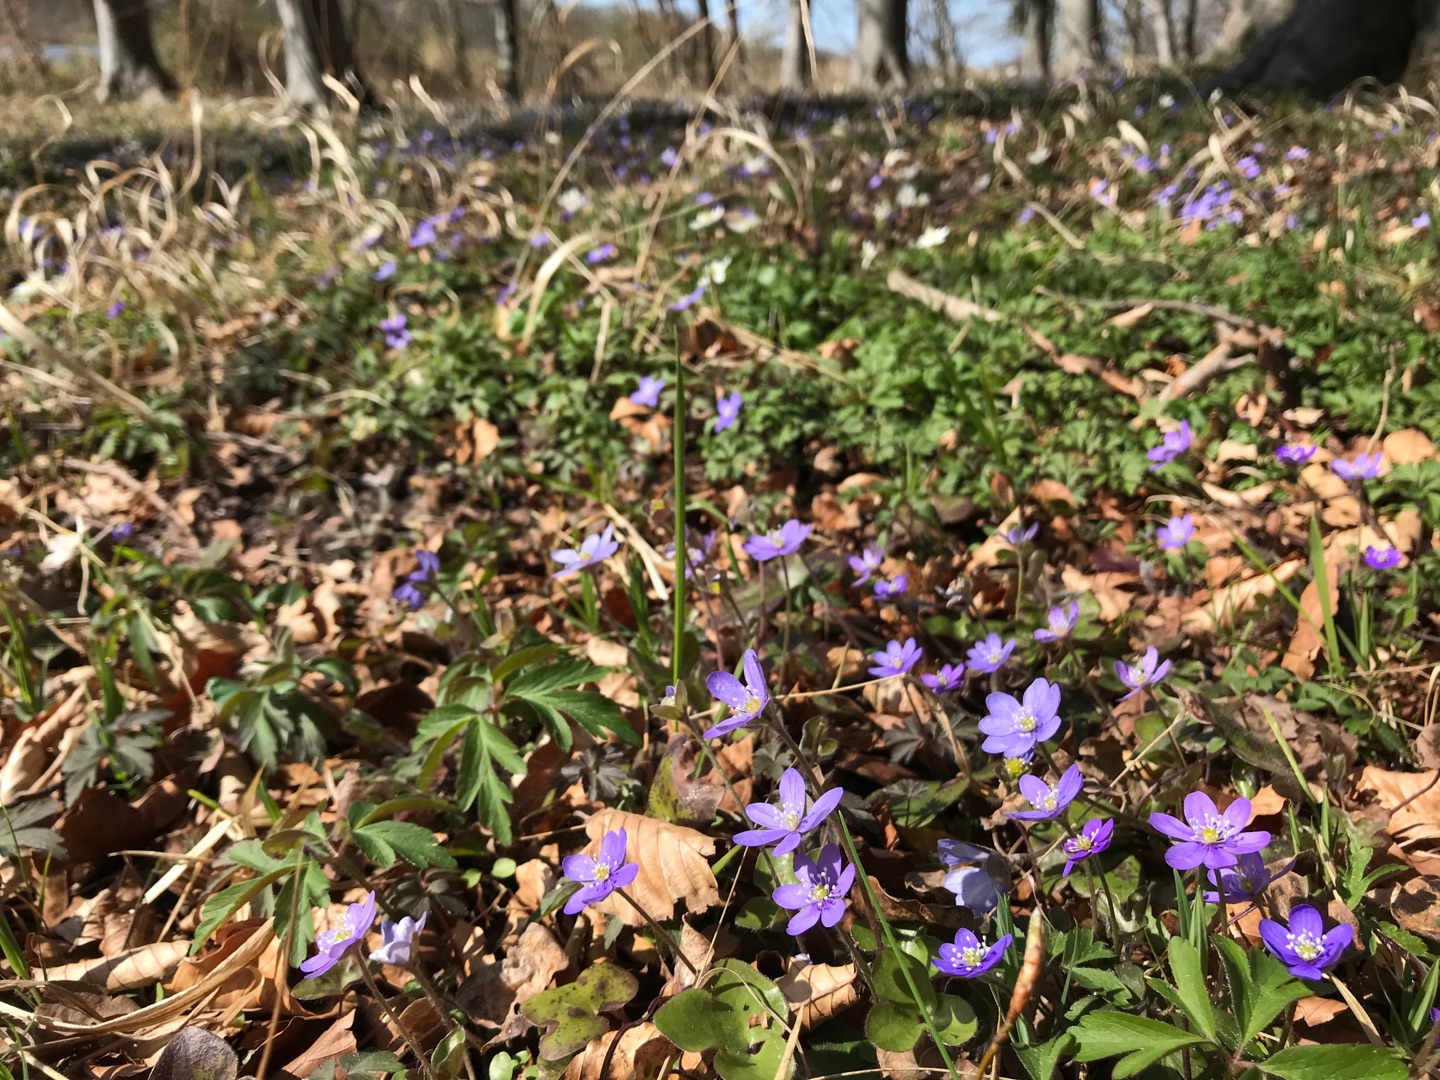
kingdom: Plantae
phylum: Tracheophyta
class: Magnoliopsida
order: Ranunculales
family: Ranunculaceae
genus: Hepatica
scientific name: Hepatica nobilis
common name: Blå anemone
